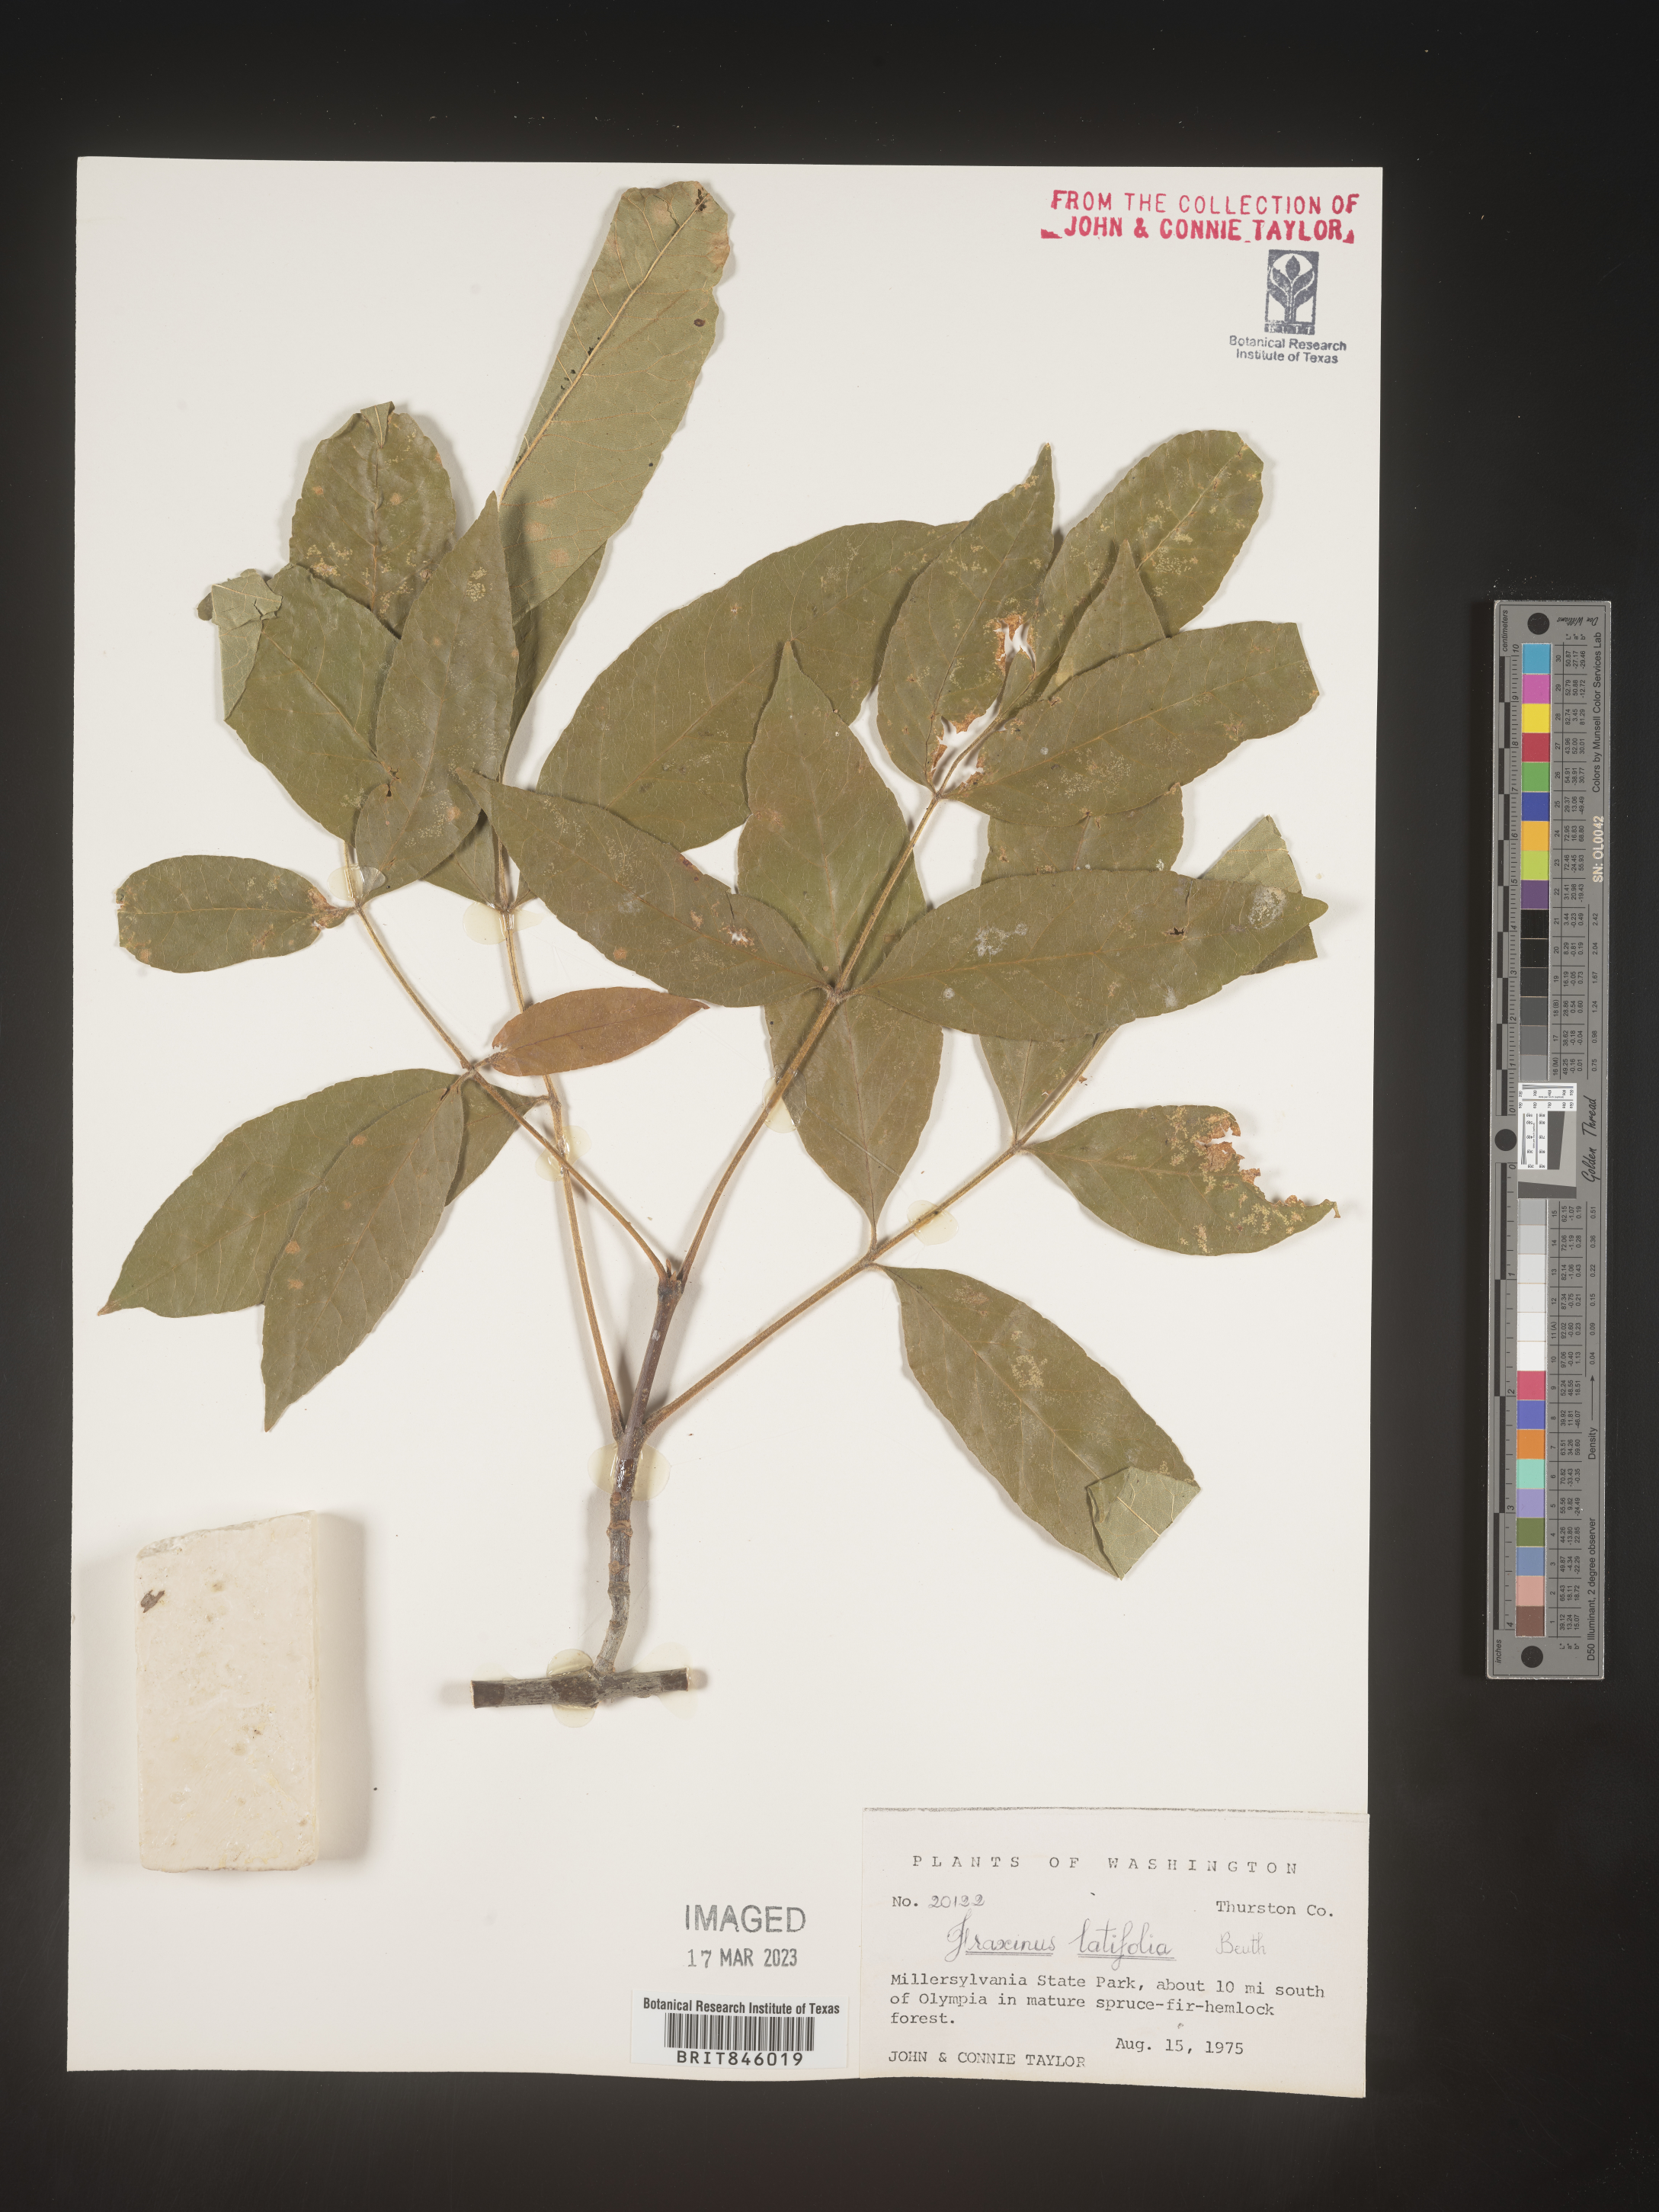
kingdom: Plantae
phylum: Tracheophyta
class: Magnoliopsida
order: Lamiales
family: Oleaceae
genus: Fraxinus
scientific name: Fraxinus latifolia
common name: Oregon ash
